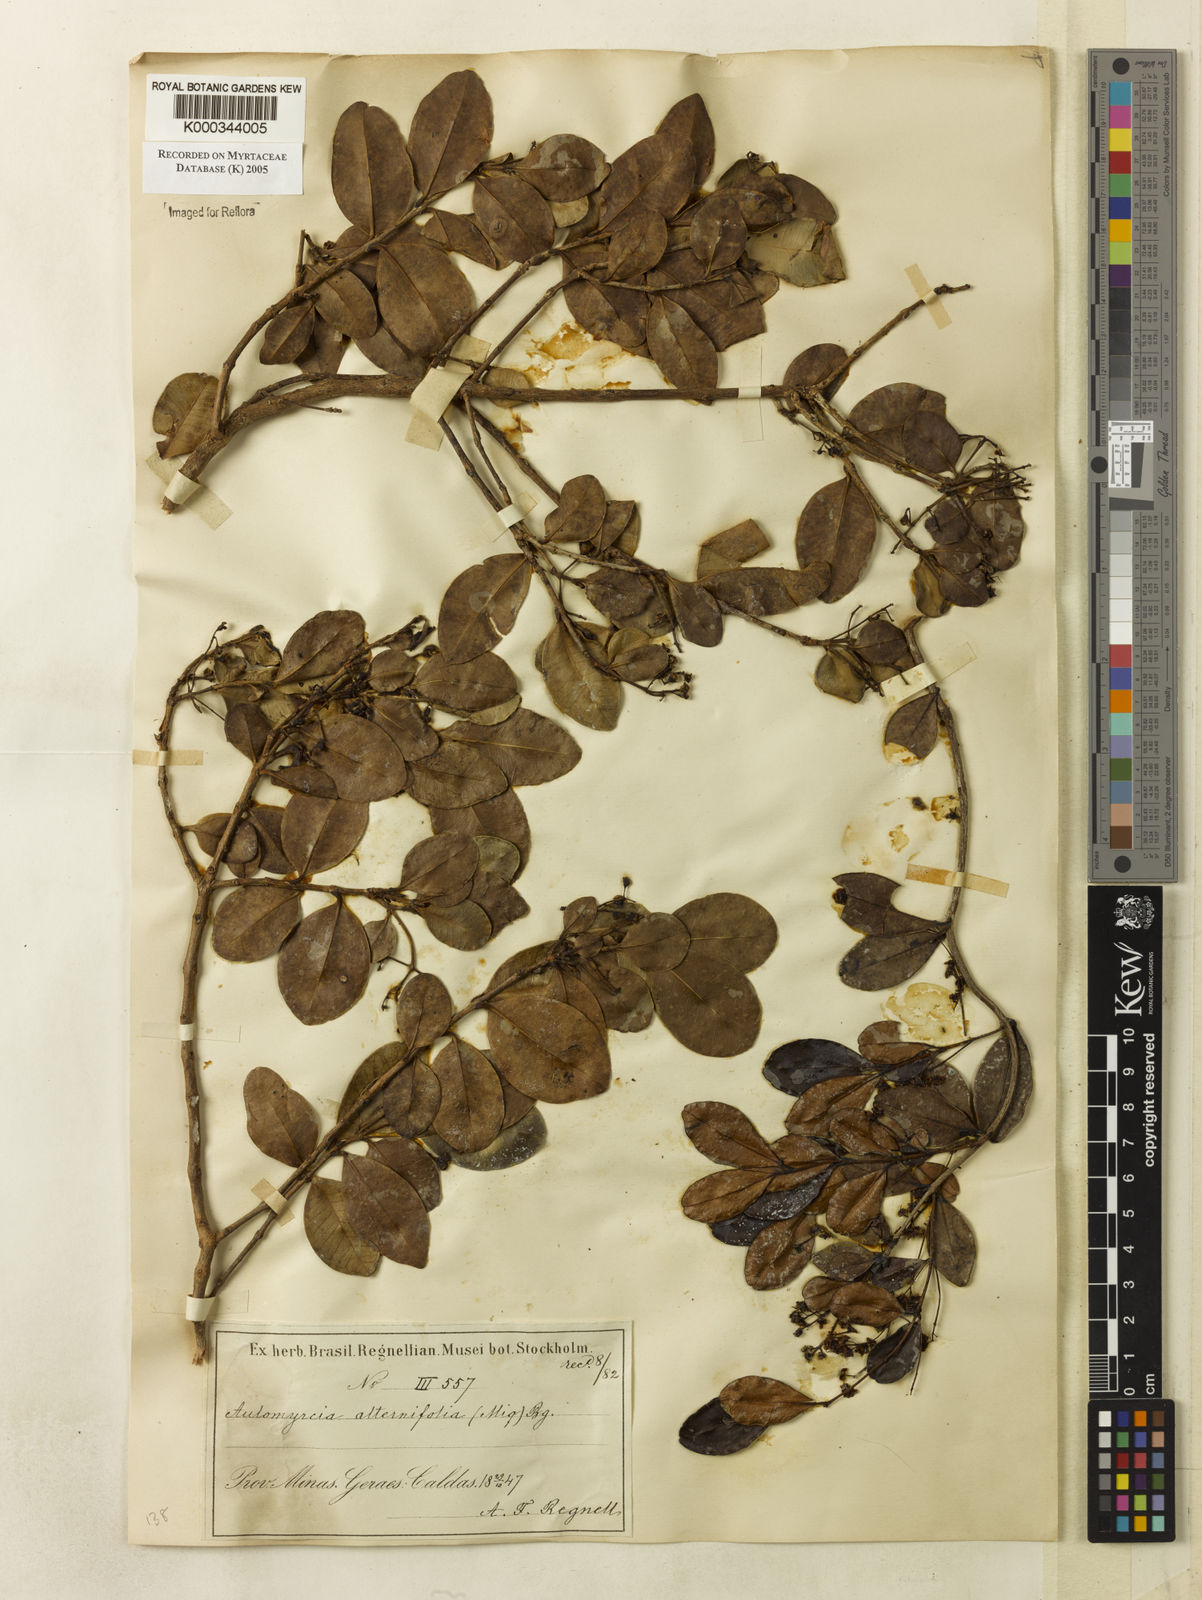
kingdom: Plantae
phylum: Tracheophyta
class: Magnoliopsida
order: Myrtales
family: Myrtaceae
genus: Myrcia
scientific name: Myrcia guianensis
